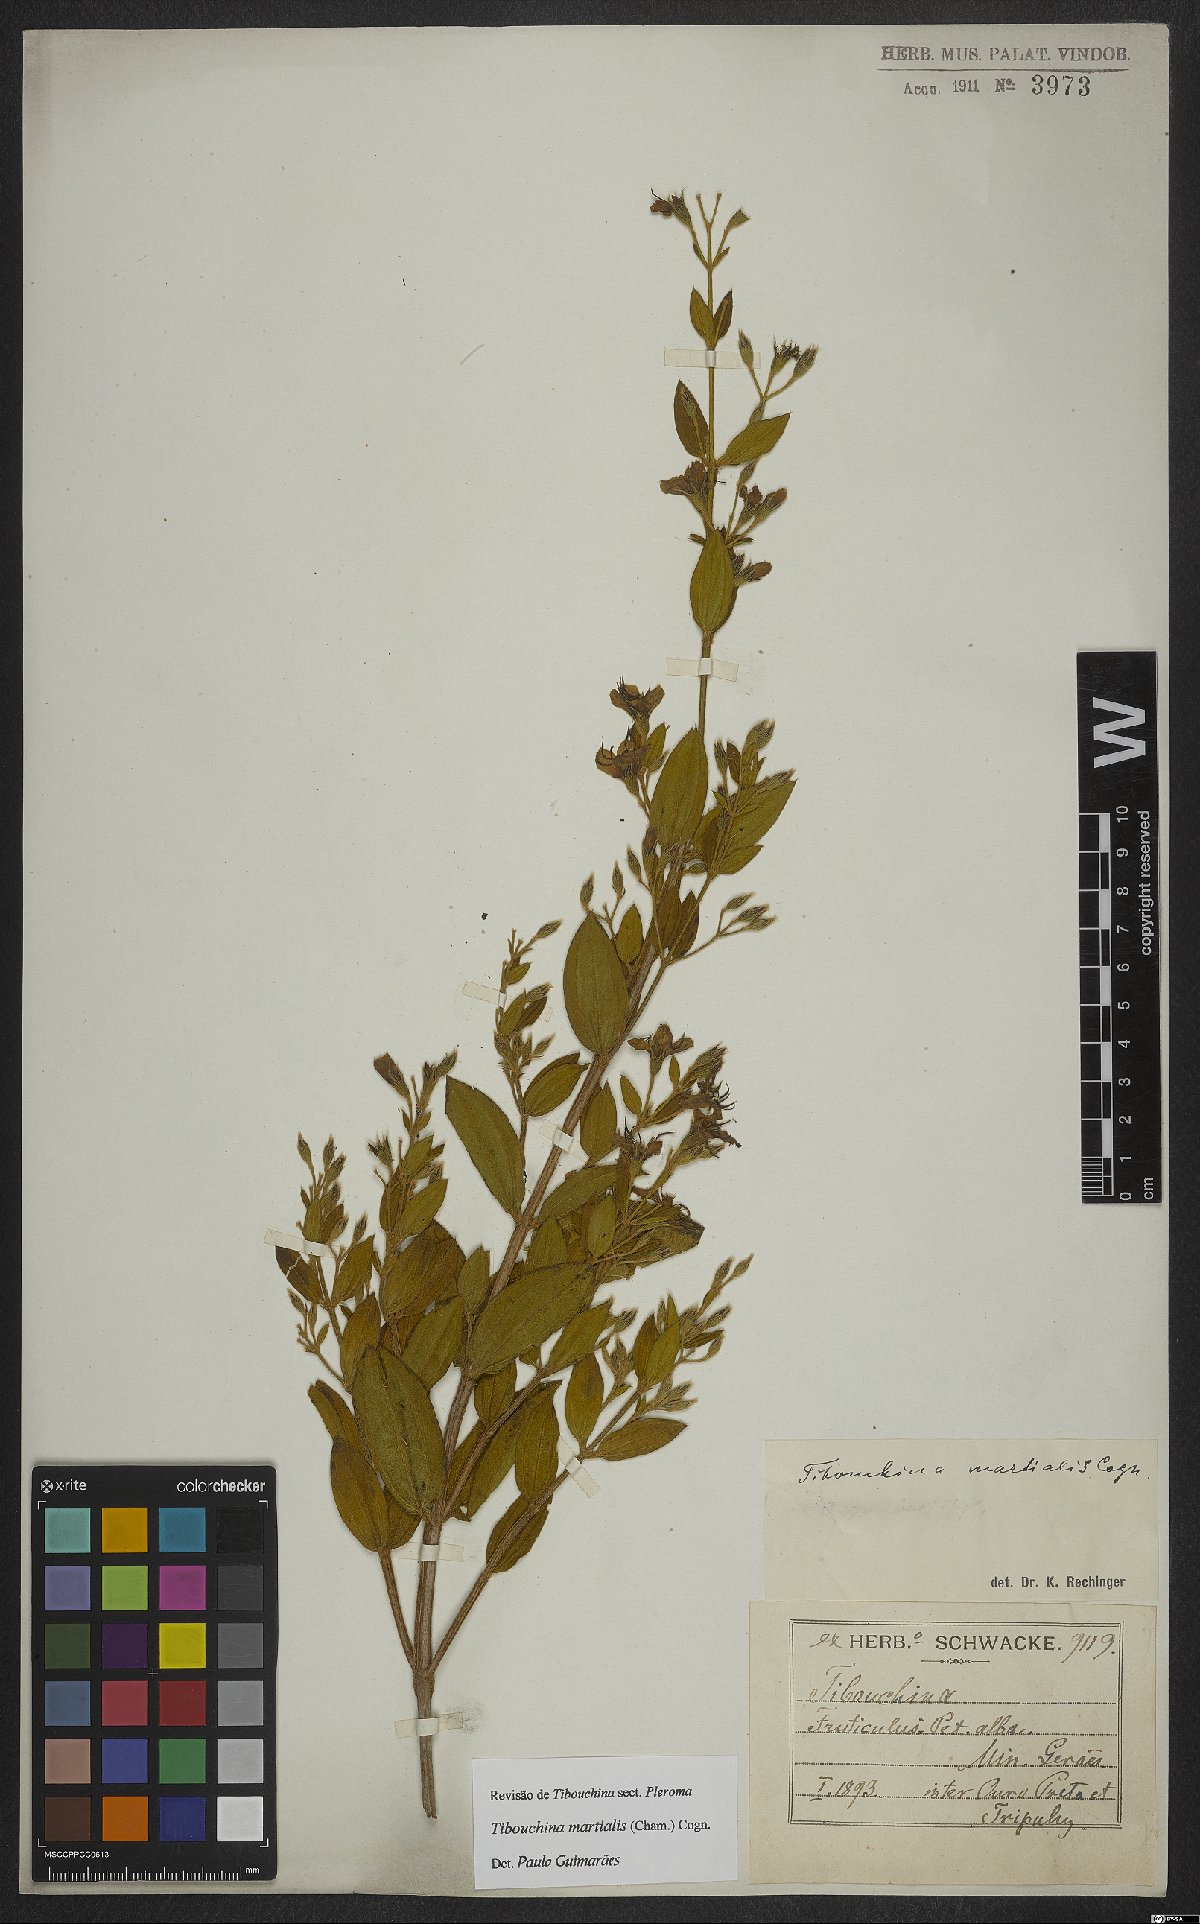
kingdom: Plantae
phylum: Tracheophyta
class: Magnoliopsida
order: Myrtales
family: Melastomataceae
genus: Pleroma
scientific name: Pleroma martiale
